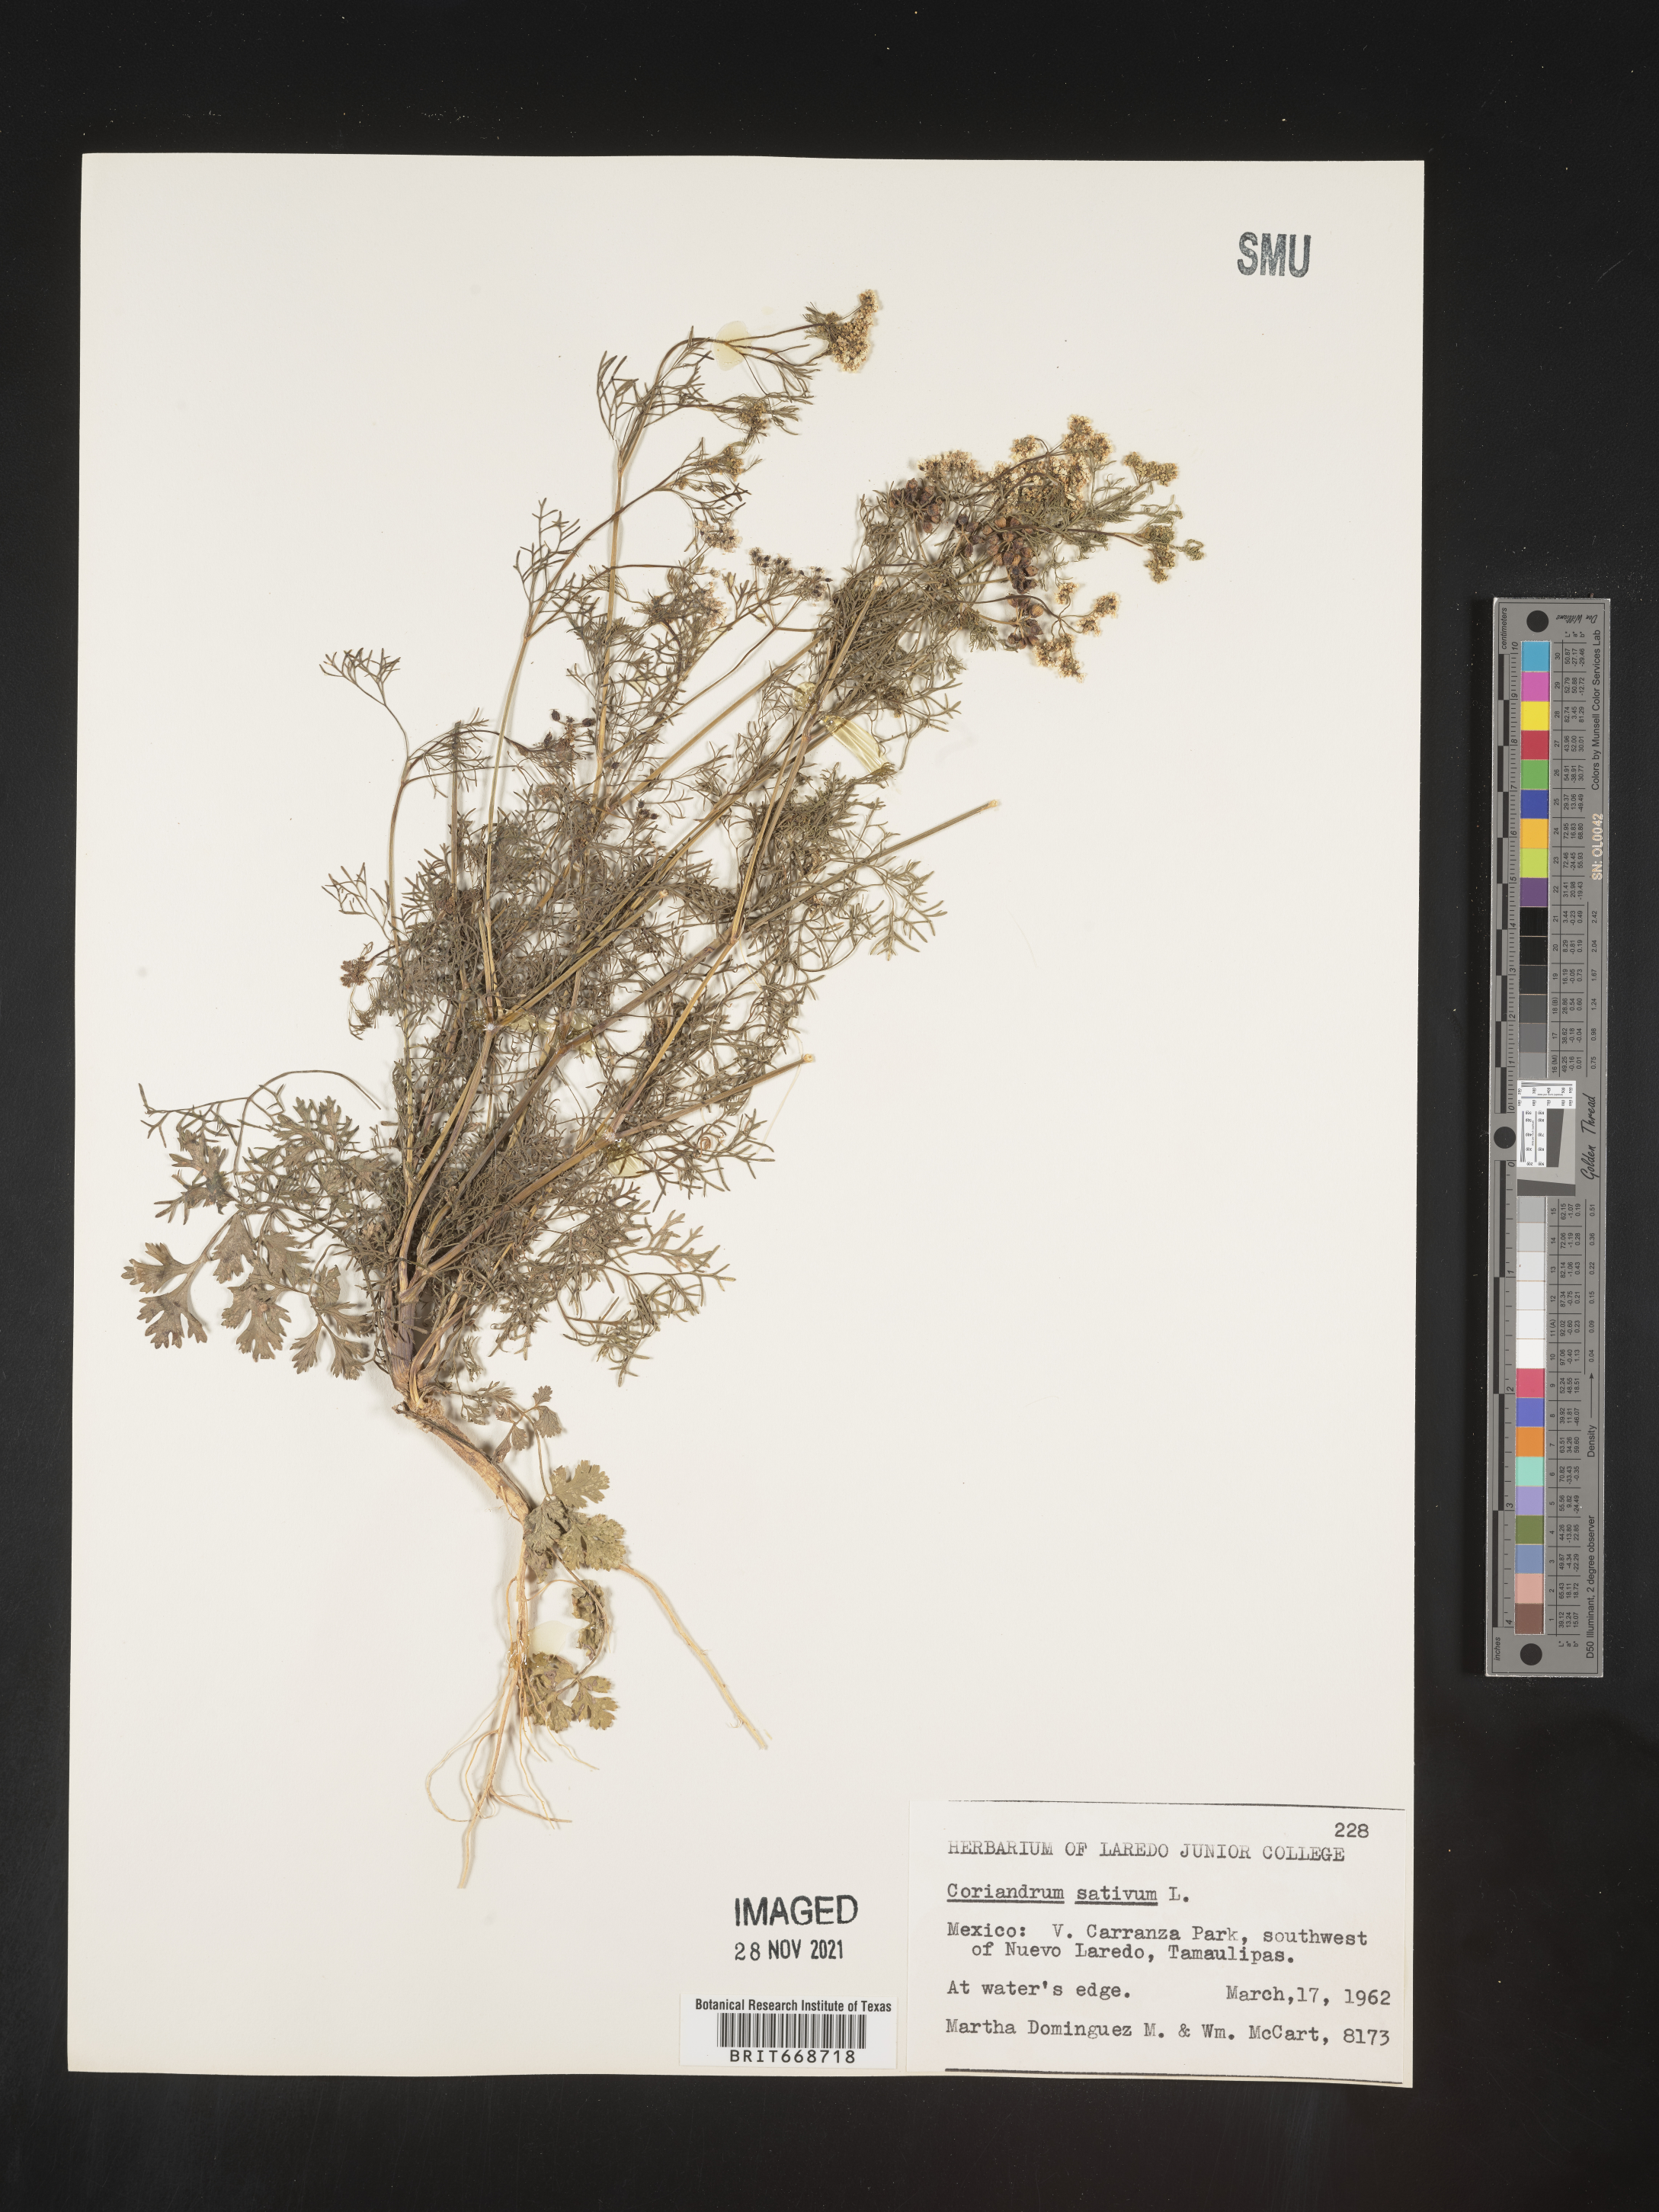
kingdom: Plantae
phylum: Tracheophyta
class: Magnoliopsida
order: Apiales
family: Apiaceae
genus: Coriandrum
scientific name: Coriandrum
